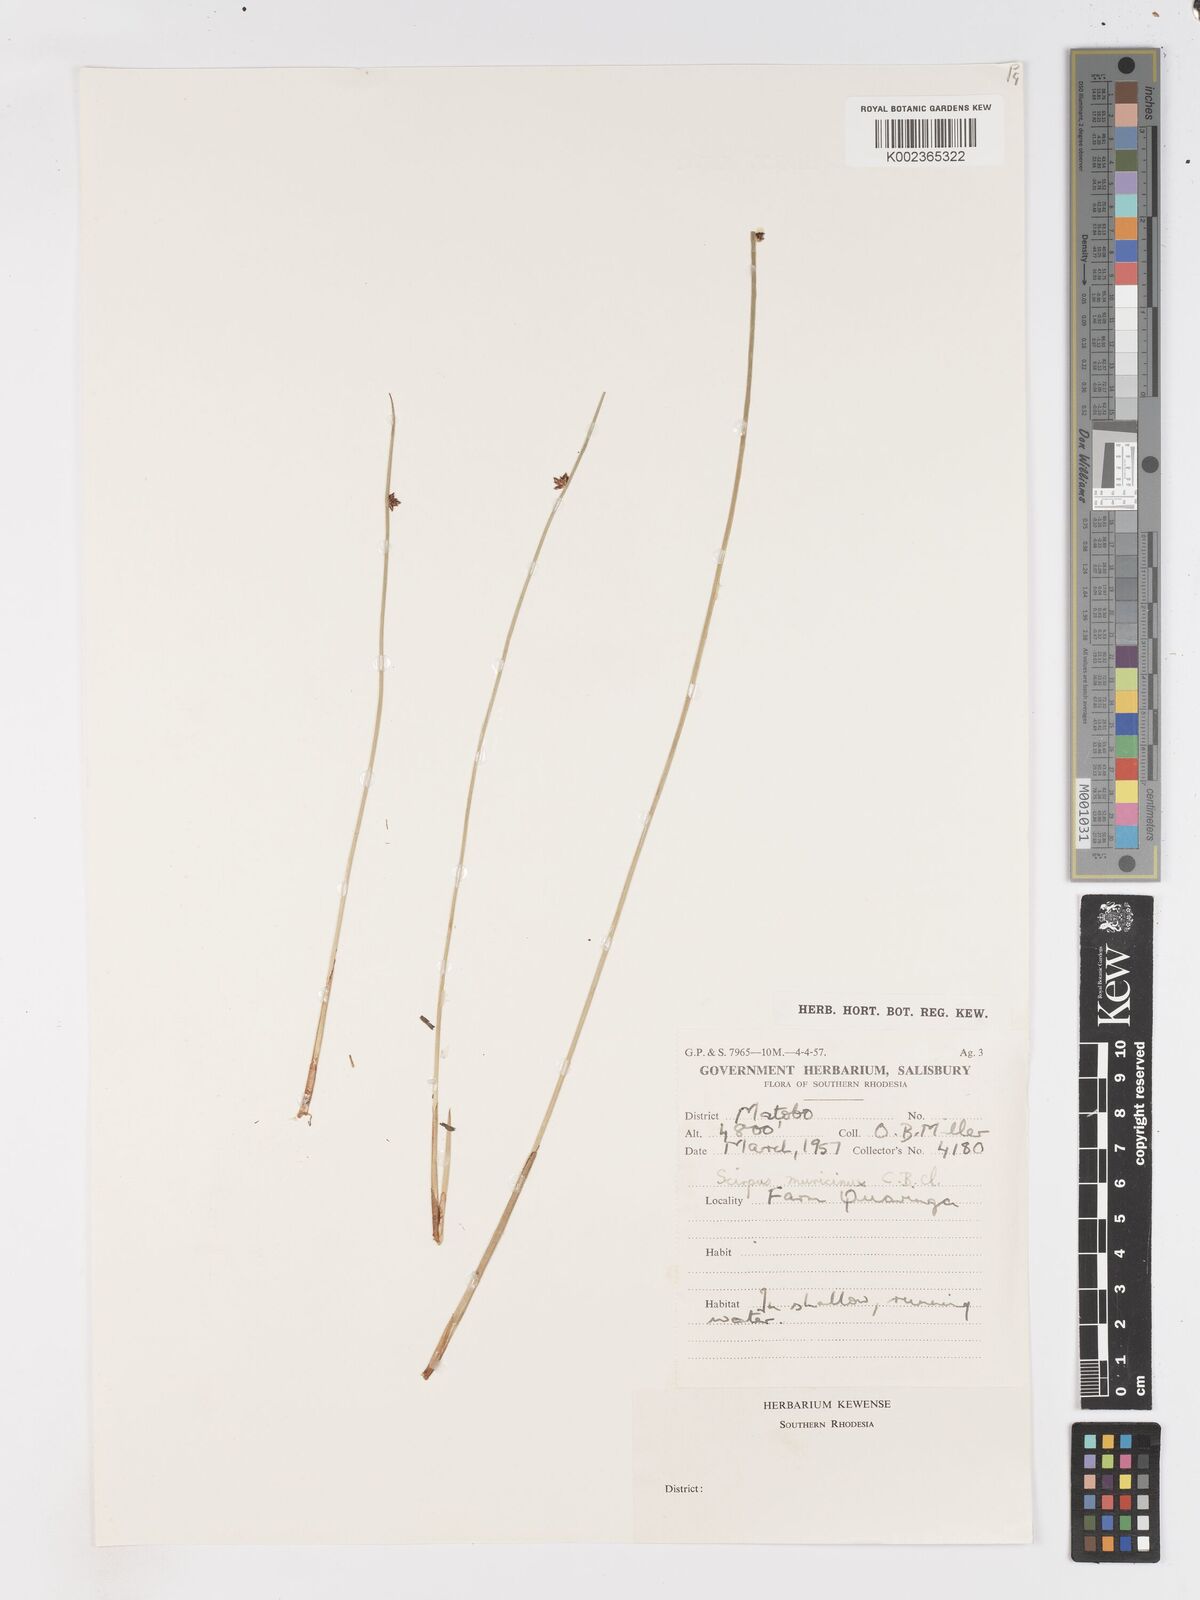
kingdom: Plantae
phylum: Tracheophyta
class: Liliopsida
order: Poales
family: Cyperaceae
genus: Schoenoplectus
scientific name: Schoenoplectus
